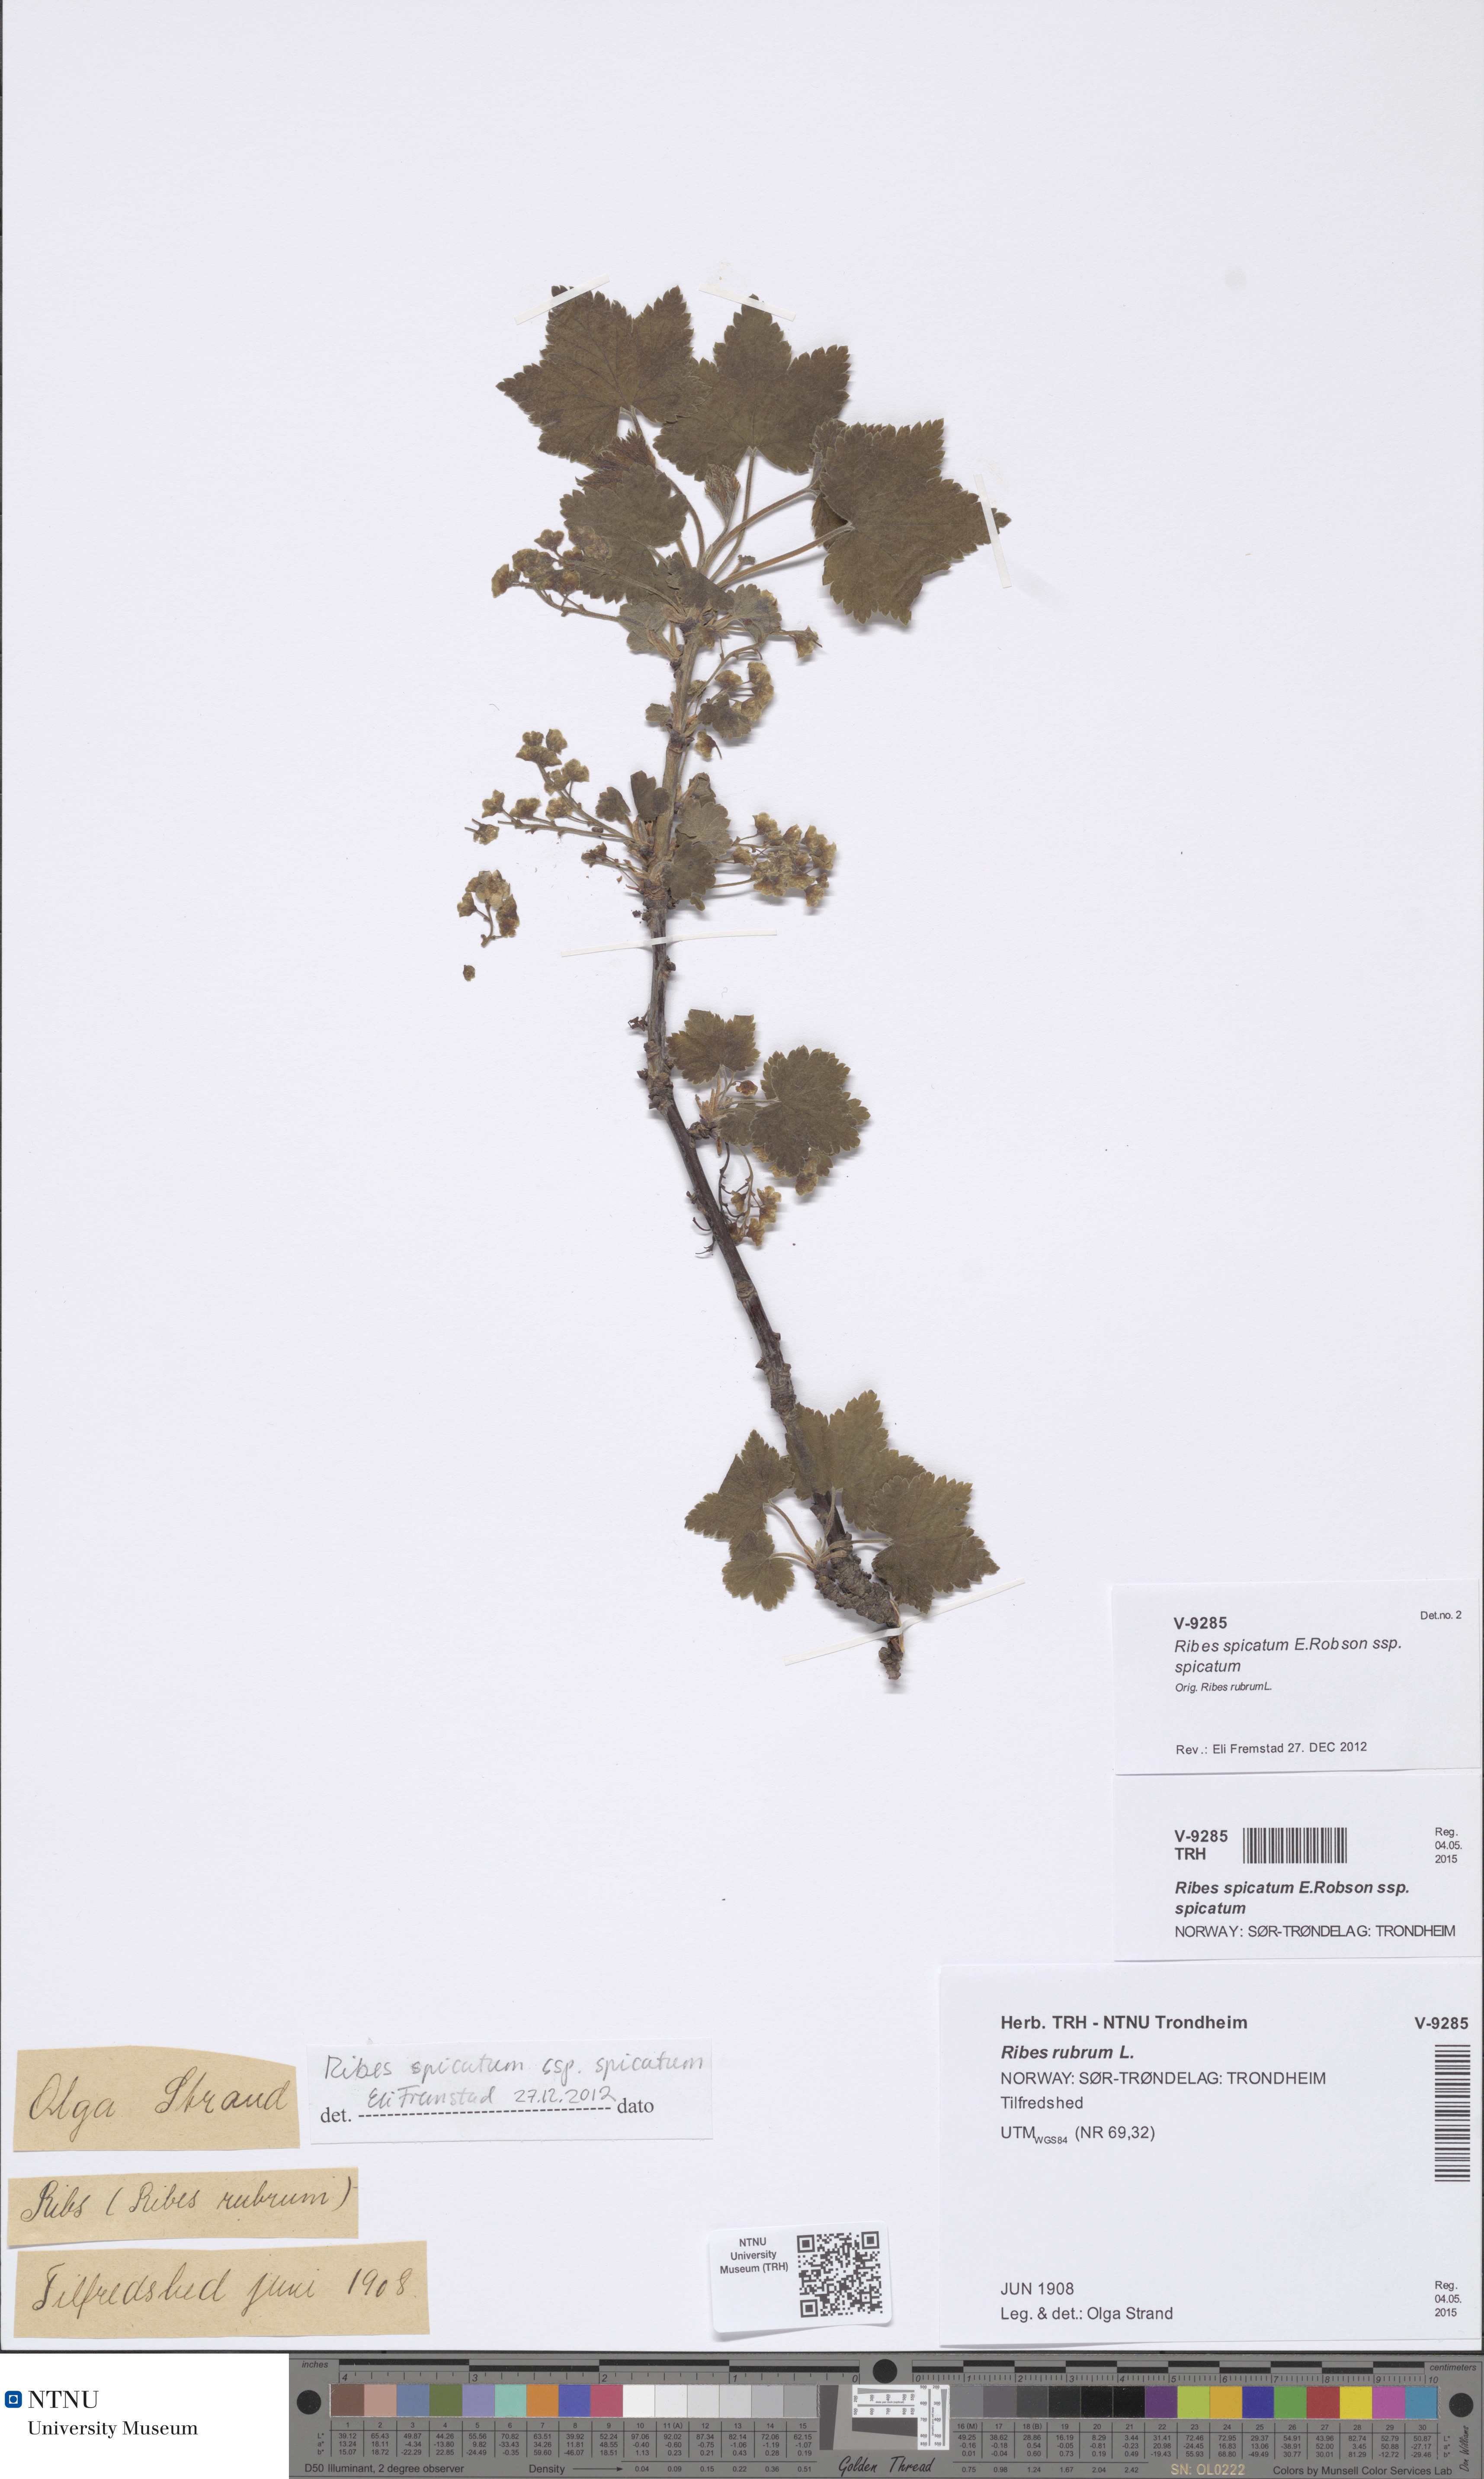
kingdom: Plantae
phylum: Tracheophyta
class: Magnoliopsida
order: Saxifragales
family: Grossulariaceae
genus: Ribes
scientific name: Ribes spicatum
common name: Downy currant
